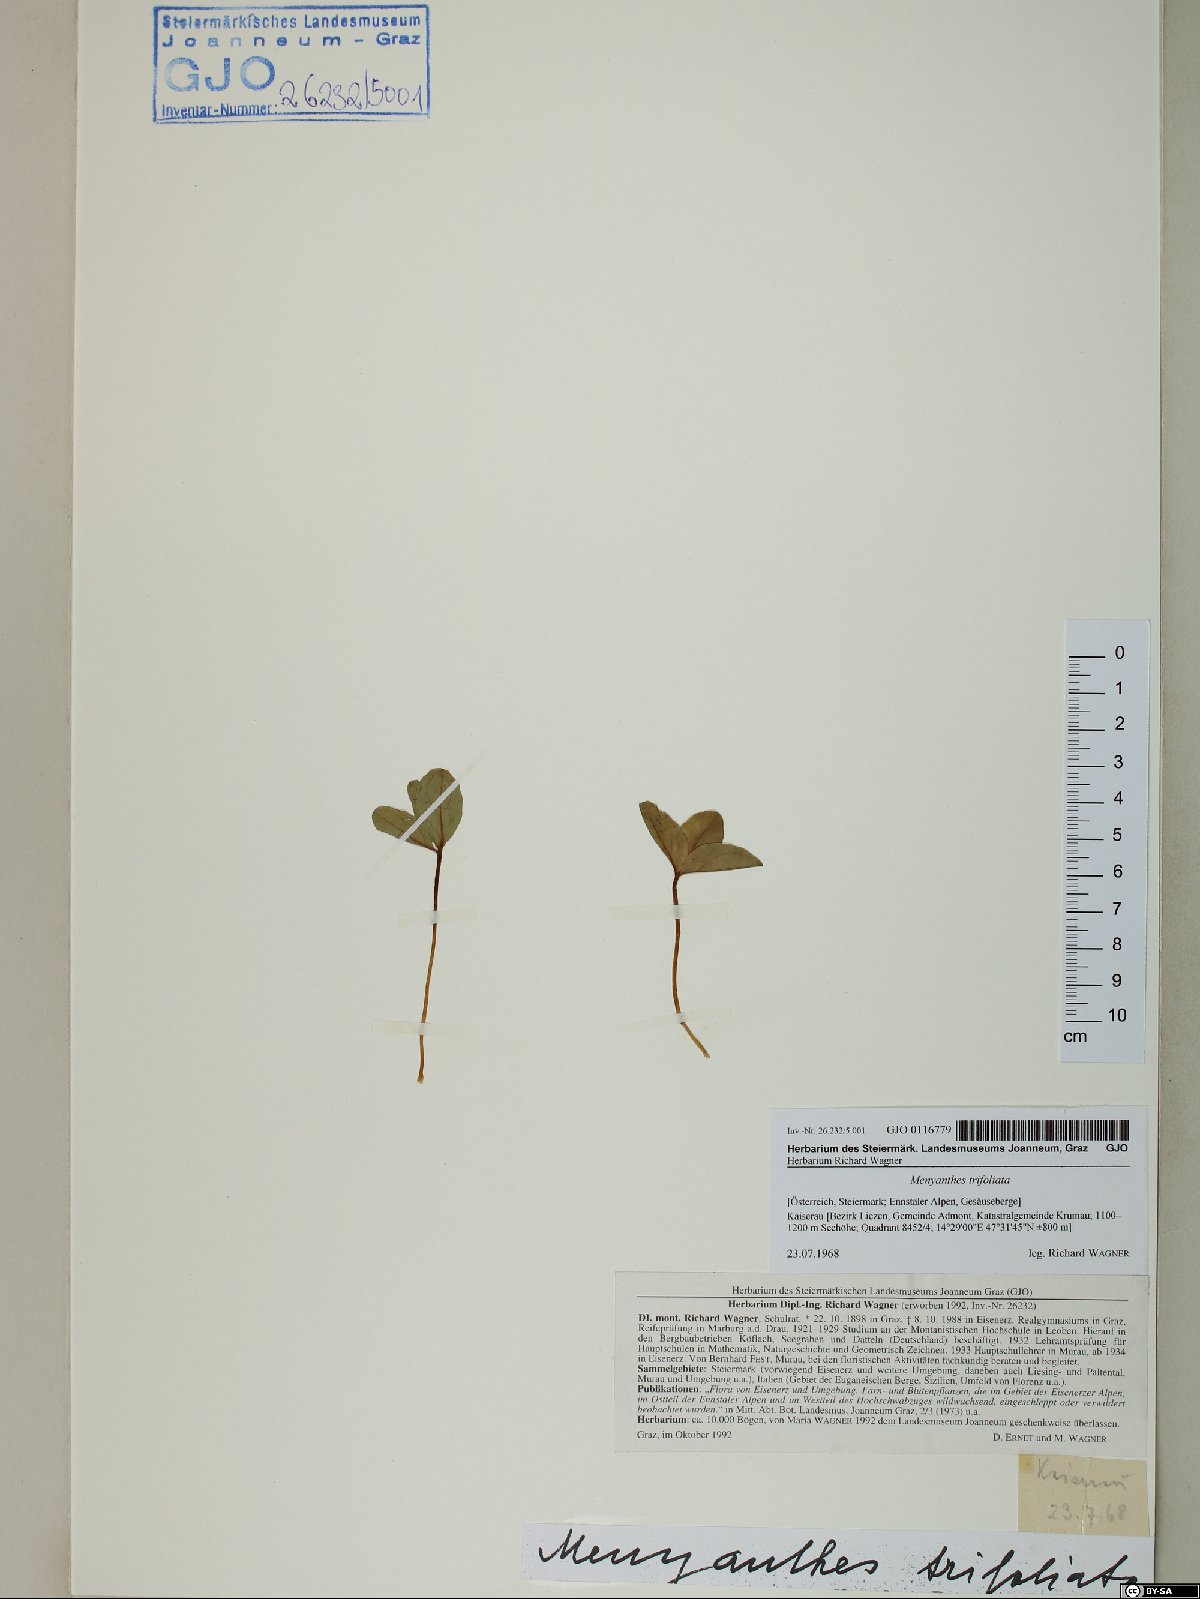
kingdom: Plantae
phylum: Tracheophyta
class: Magnoliopsida
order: Asterales
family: Menyanthaceae
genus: Menyanthes
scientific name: Menyanthes trifoliata
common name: Bogbean
